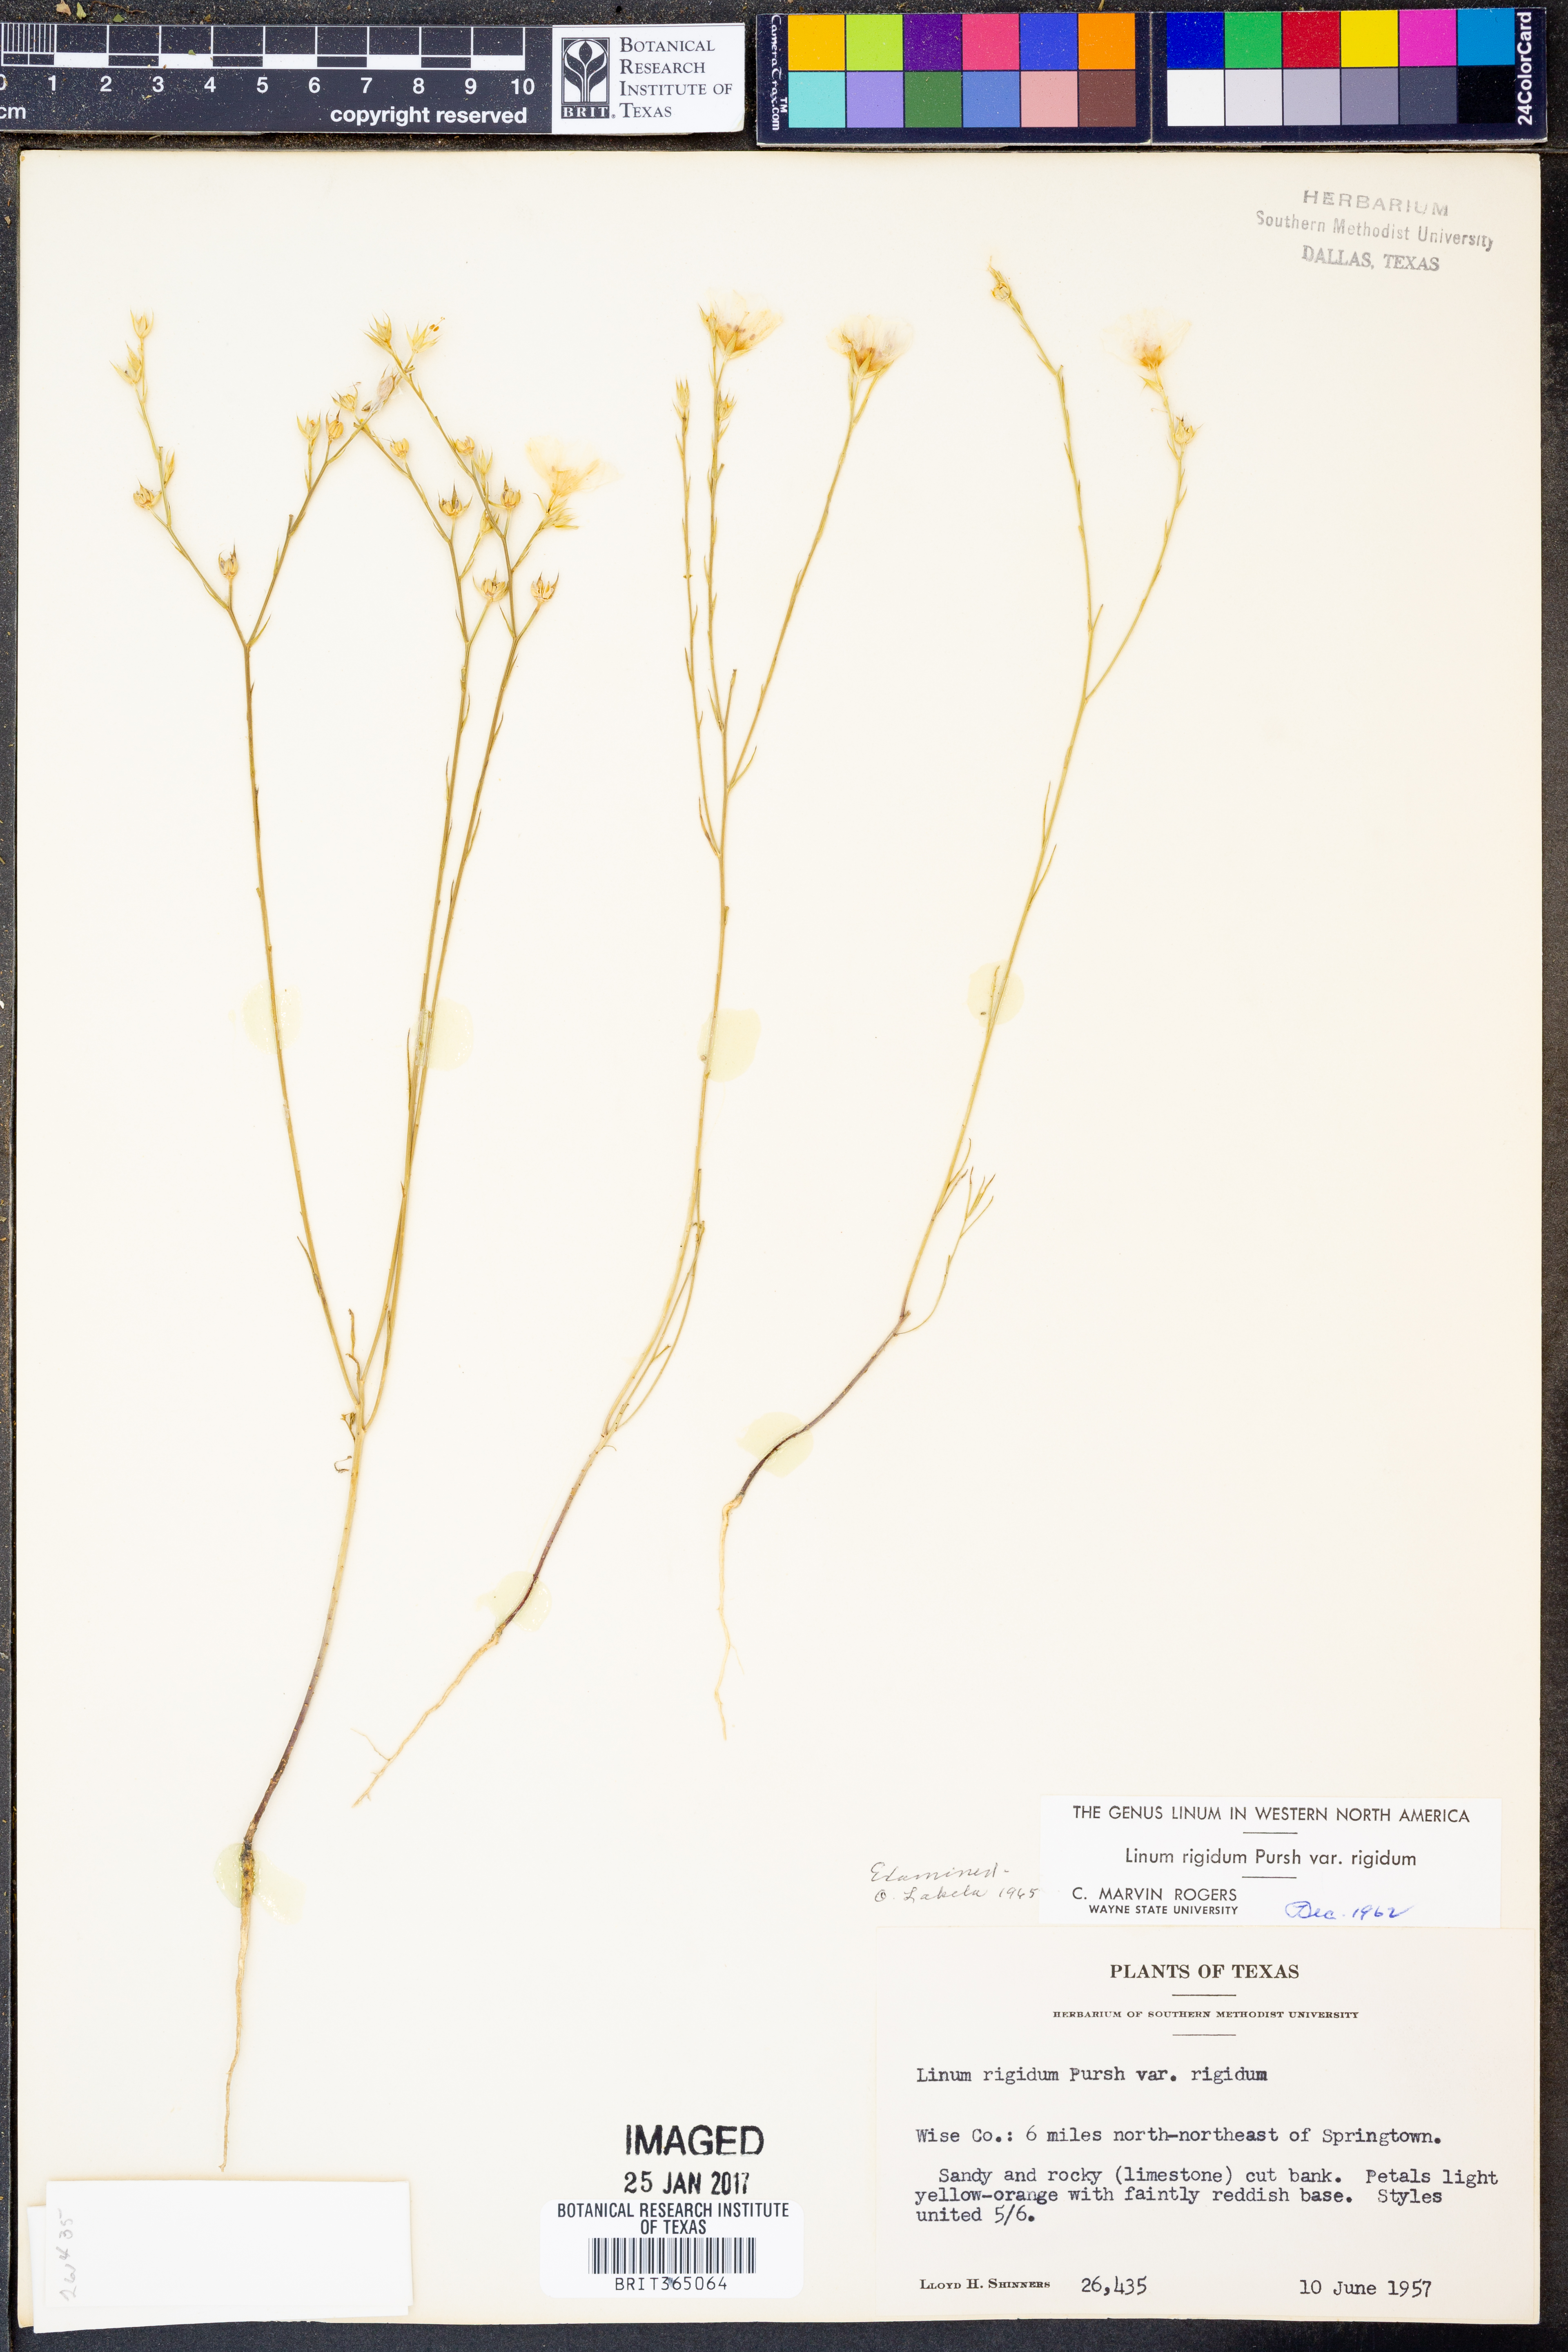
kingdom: Plantae
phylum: Tracheophyta
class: Magnoliopsida
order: Malpighiales
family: Linaceae
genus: Linum
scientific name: Linum rigidum
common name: Stiff-stem flax
